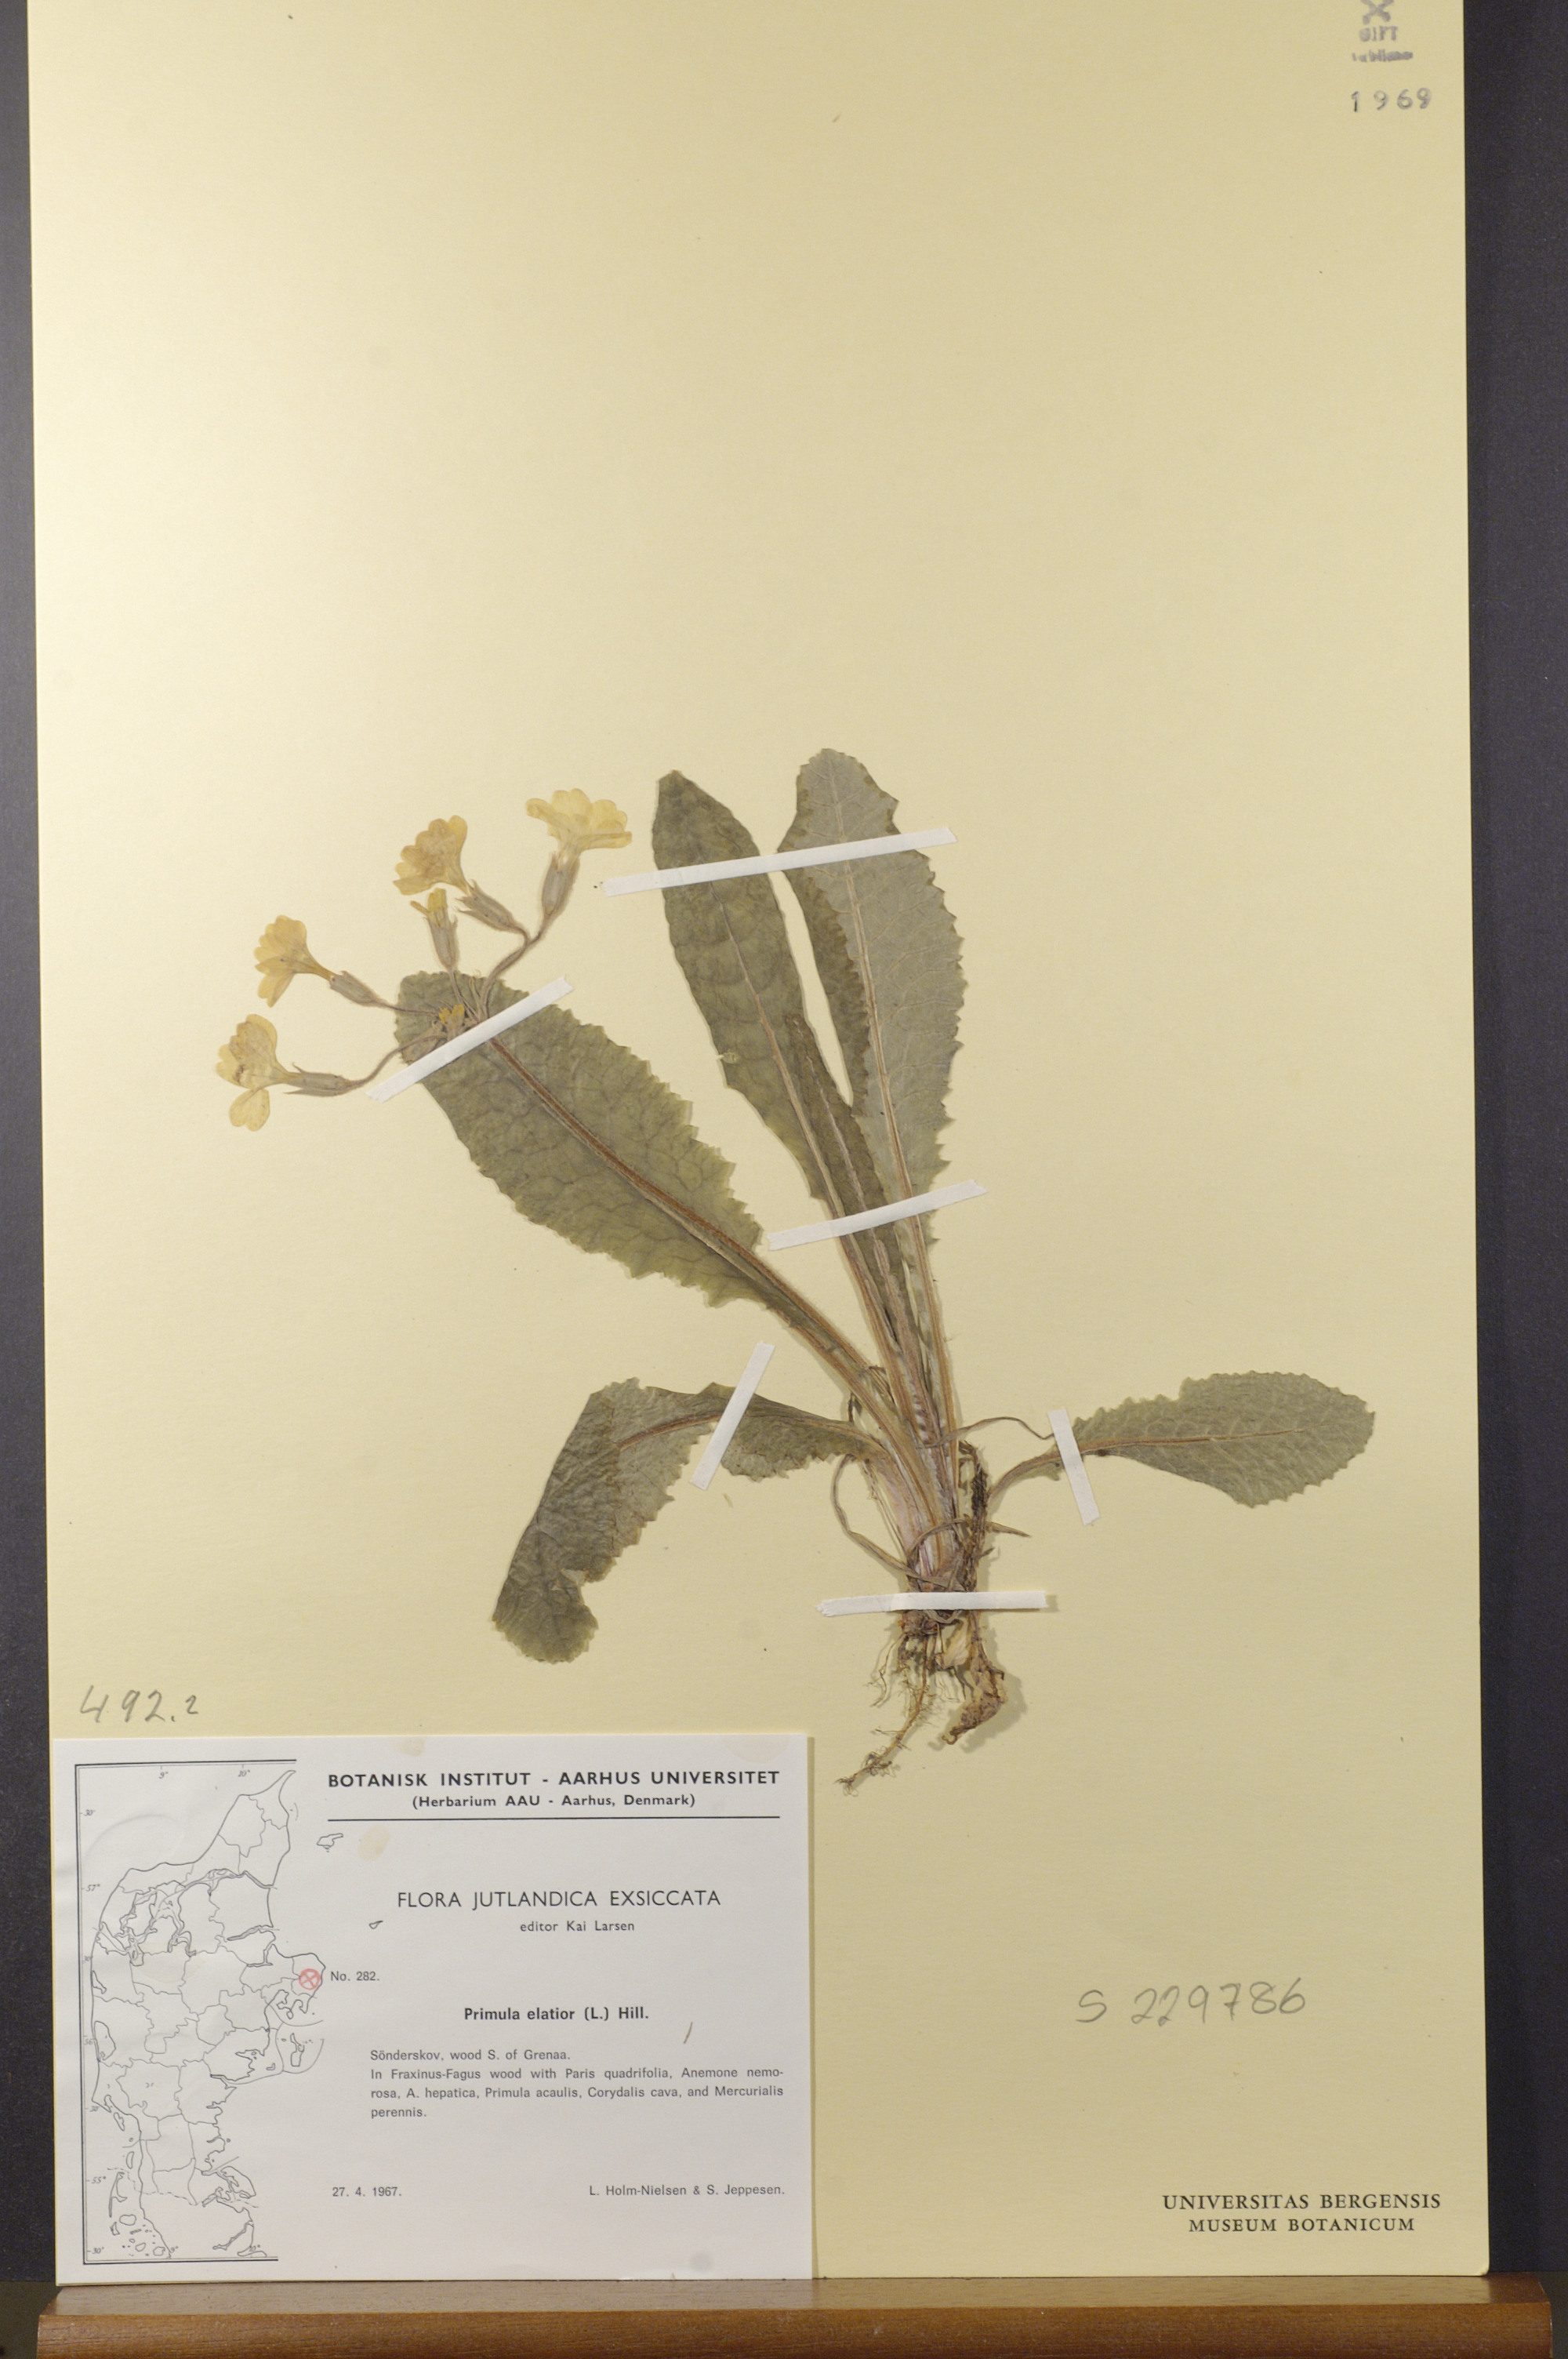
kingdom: Plantae
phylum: Tracheophyta
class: Magnoliopsida
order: Ericales
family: Primulaceae
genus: Primula
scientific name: Primula elatior
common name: Oxlip
